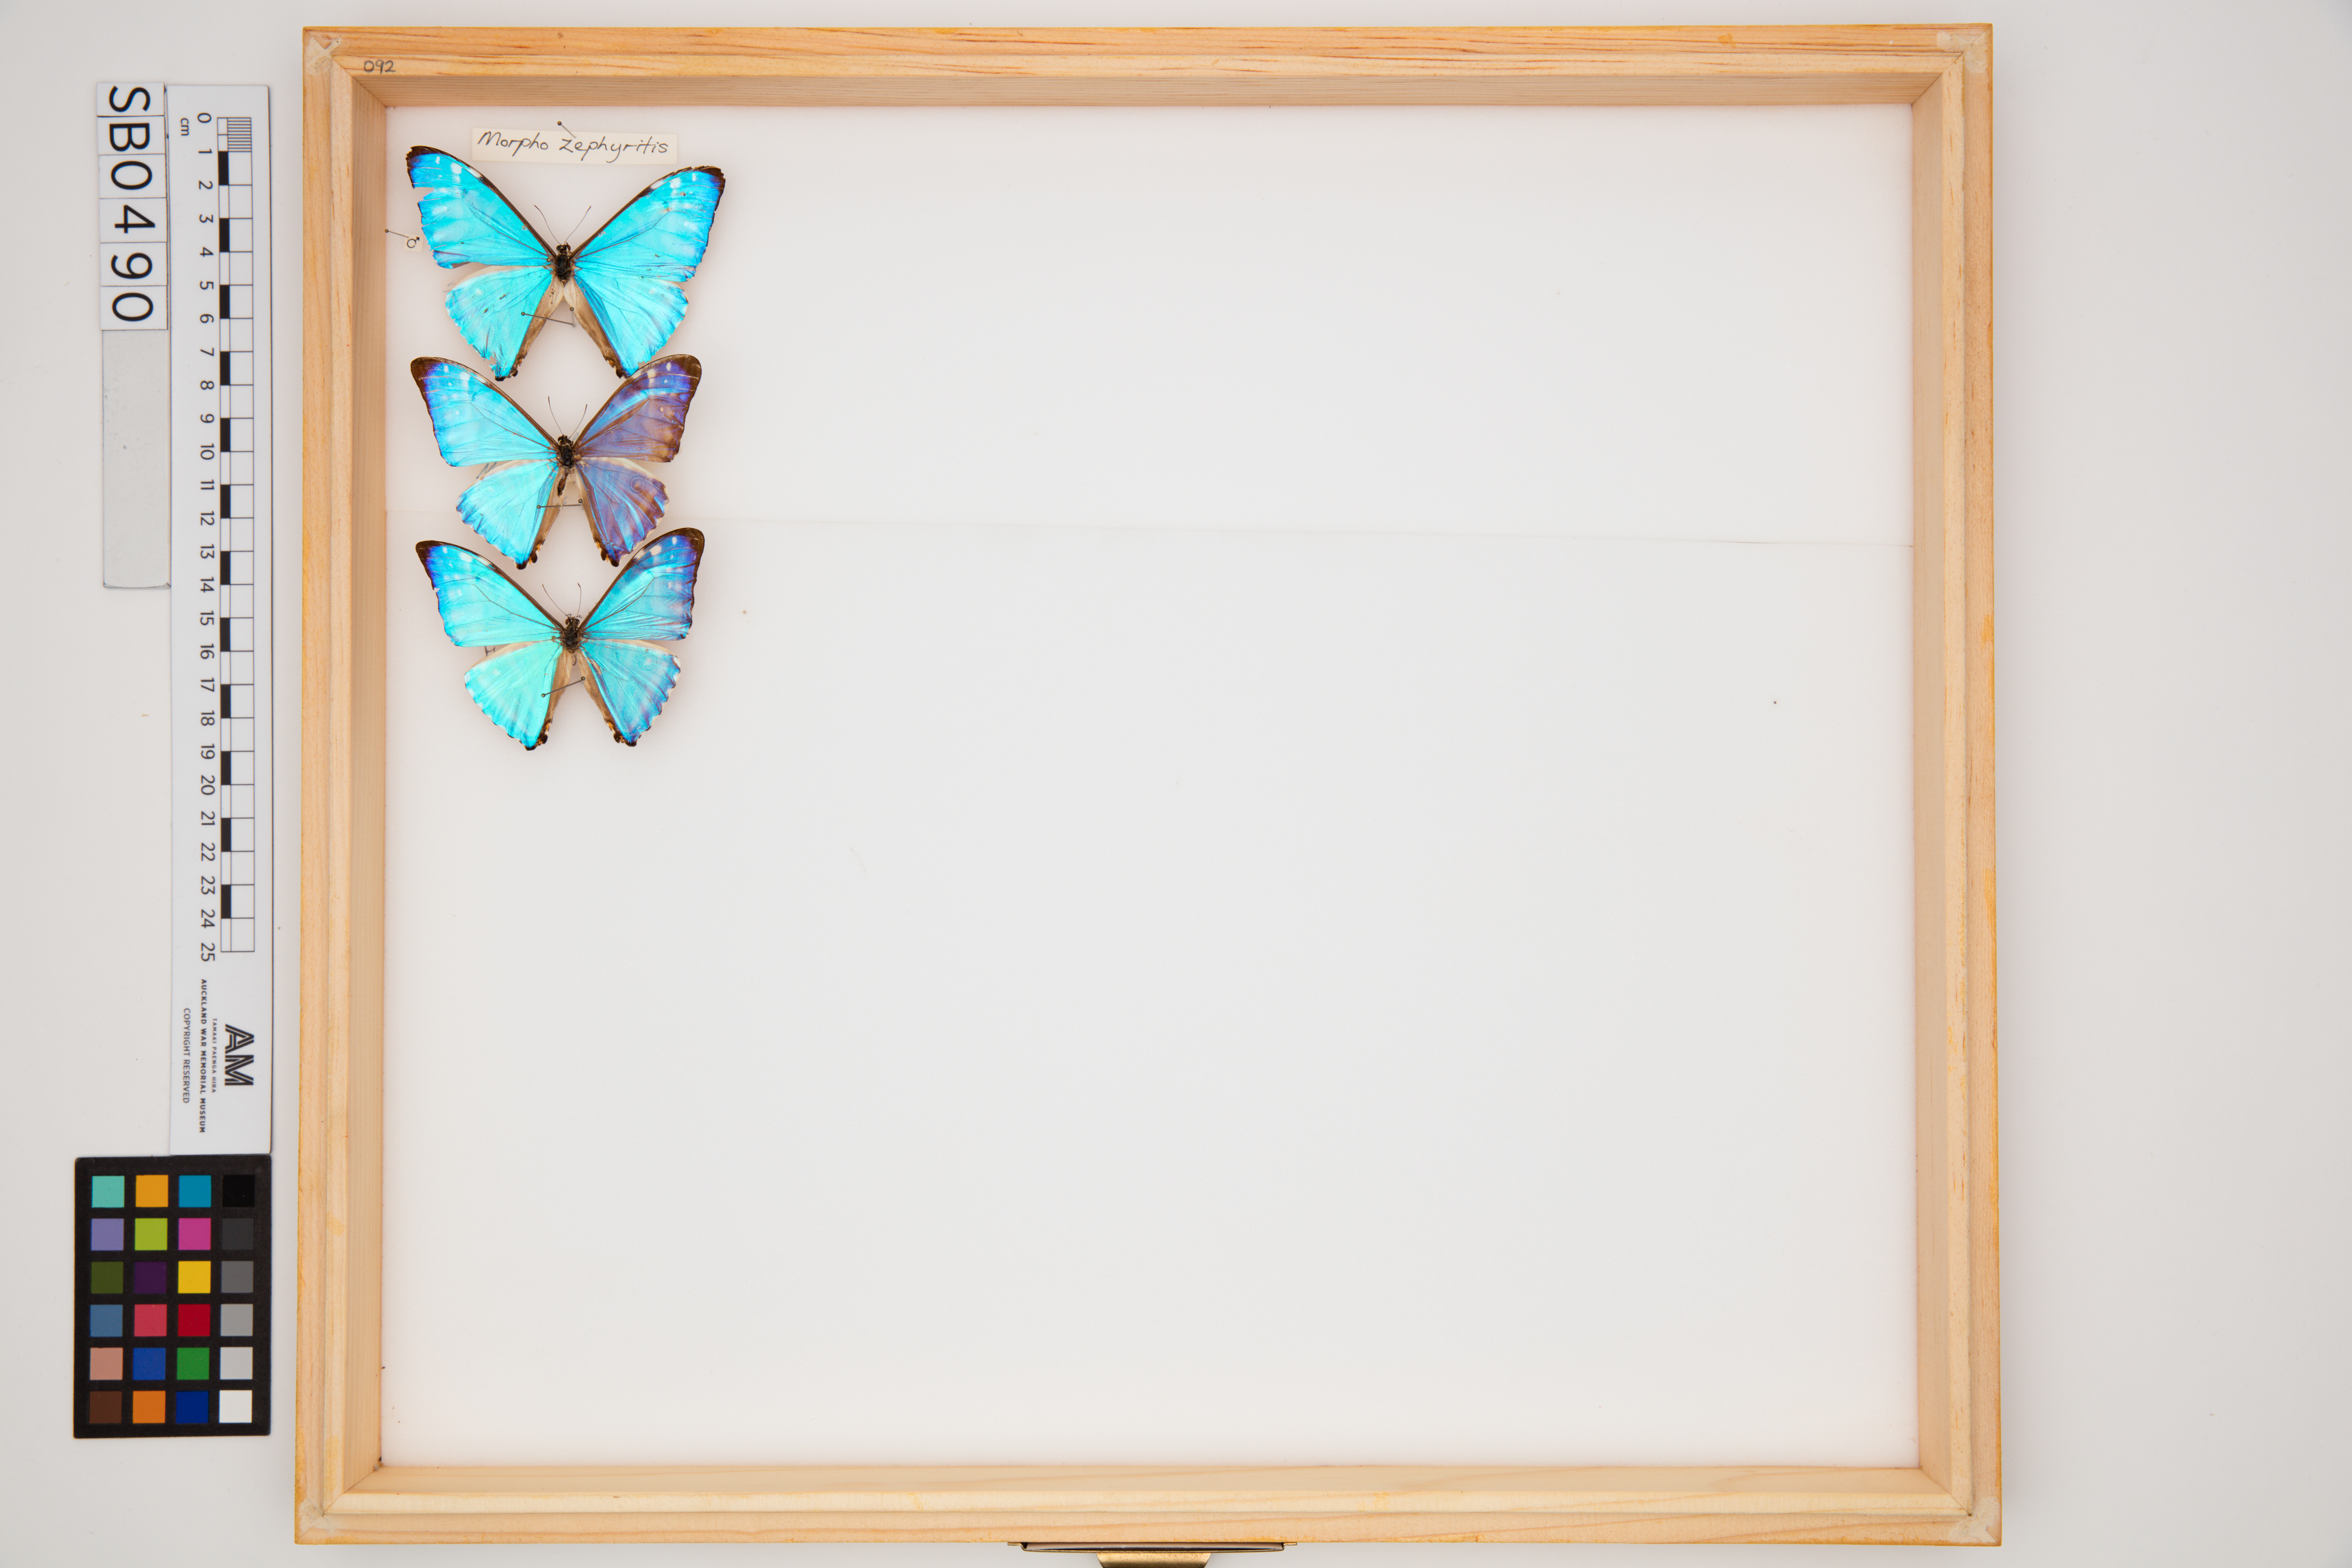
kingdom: Animalia
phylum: Arthropoda
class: Insecta
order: Lepidoptera
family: Nymphalidae
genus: Morpho
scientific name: Morpho zephyritis
